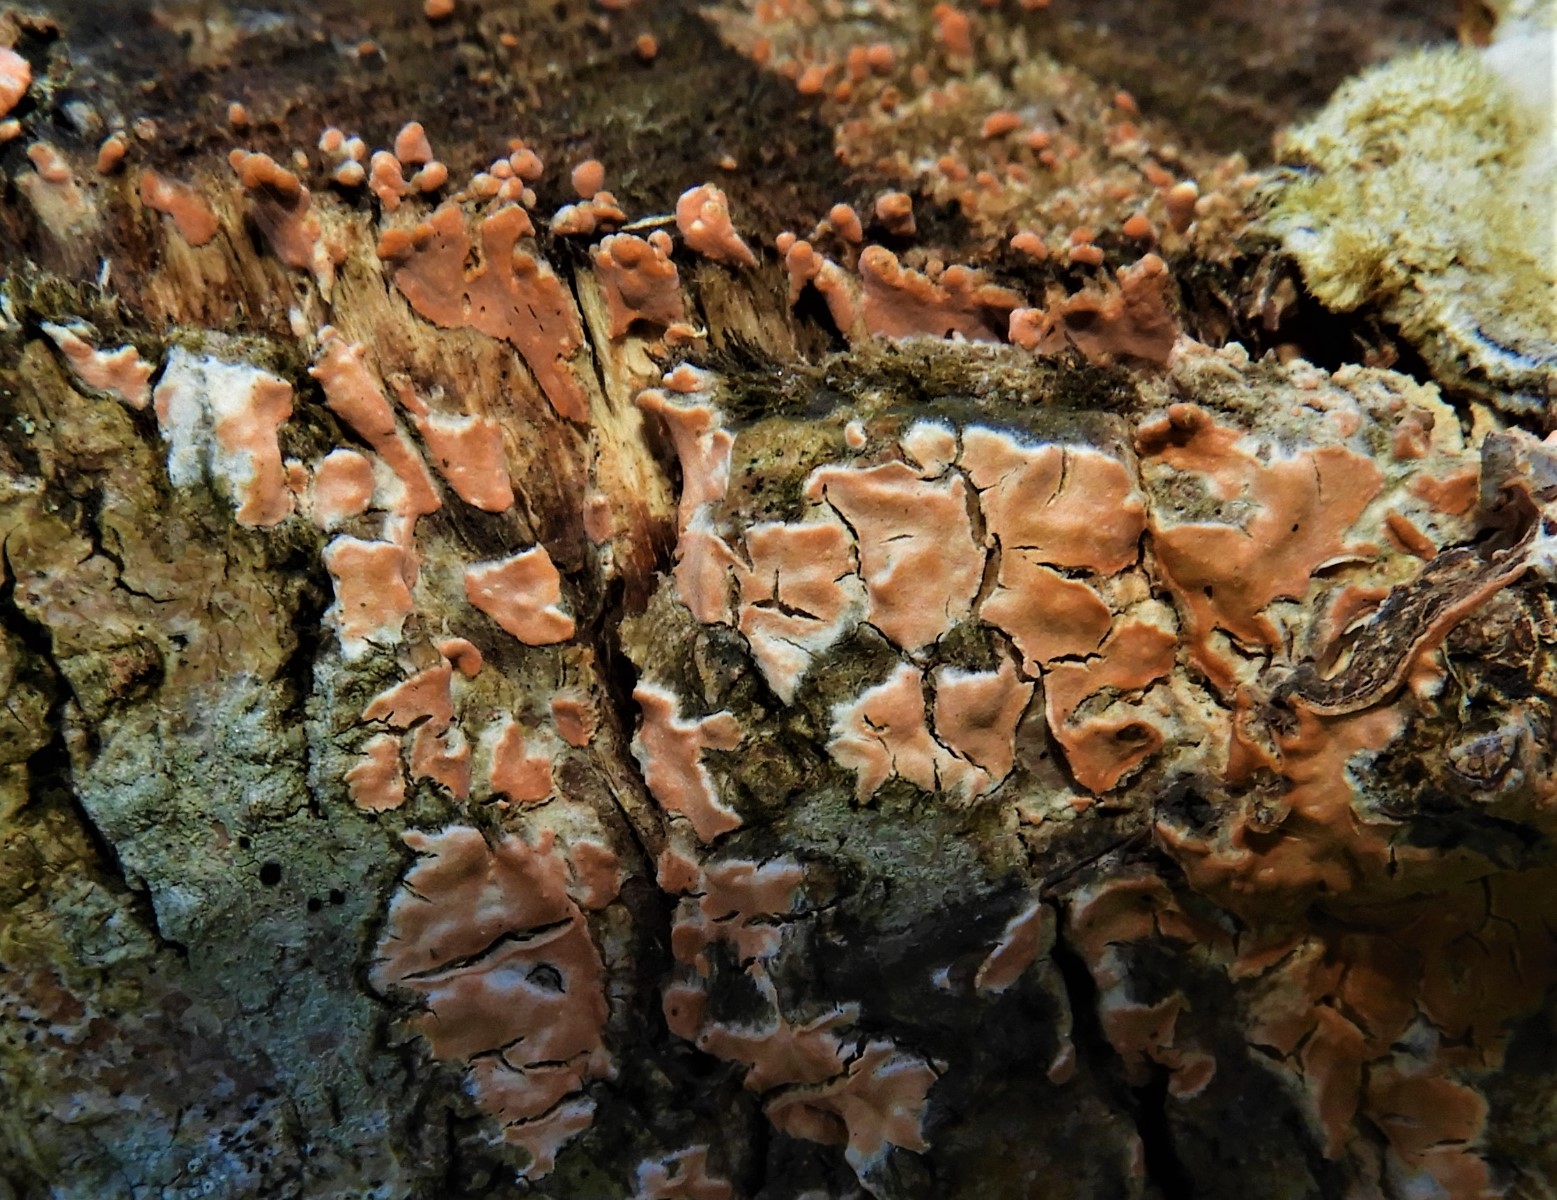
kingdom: Fungi
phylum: Basidiomycota
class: Agaricomycetes
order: Russulales
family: Peniophoraceae
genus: Peniophora
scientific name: Peniophora incarnata
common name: laksefarvet voksskind
